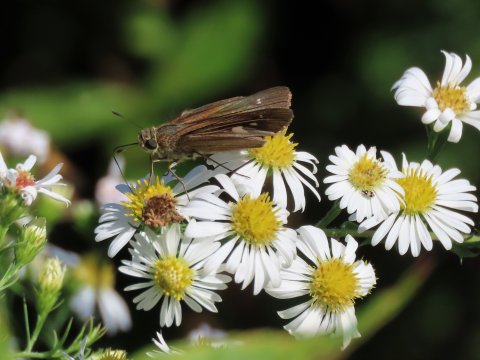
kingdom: Animalia
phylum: Arthropoda
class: Insecta
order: Lepidoptera
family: Hesperiidae
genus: Panoquina
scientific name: Panoquina ocola
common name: Ocola Skipper
